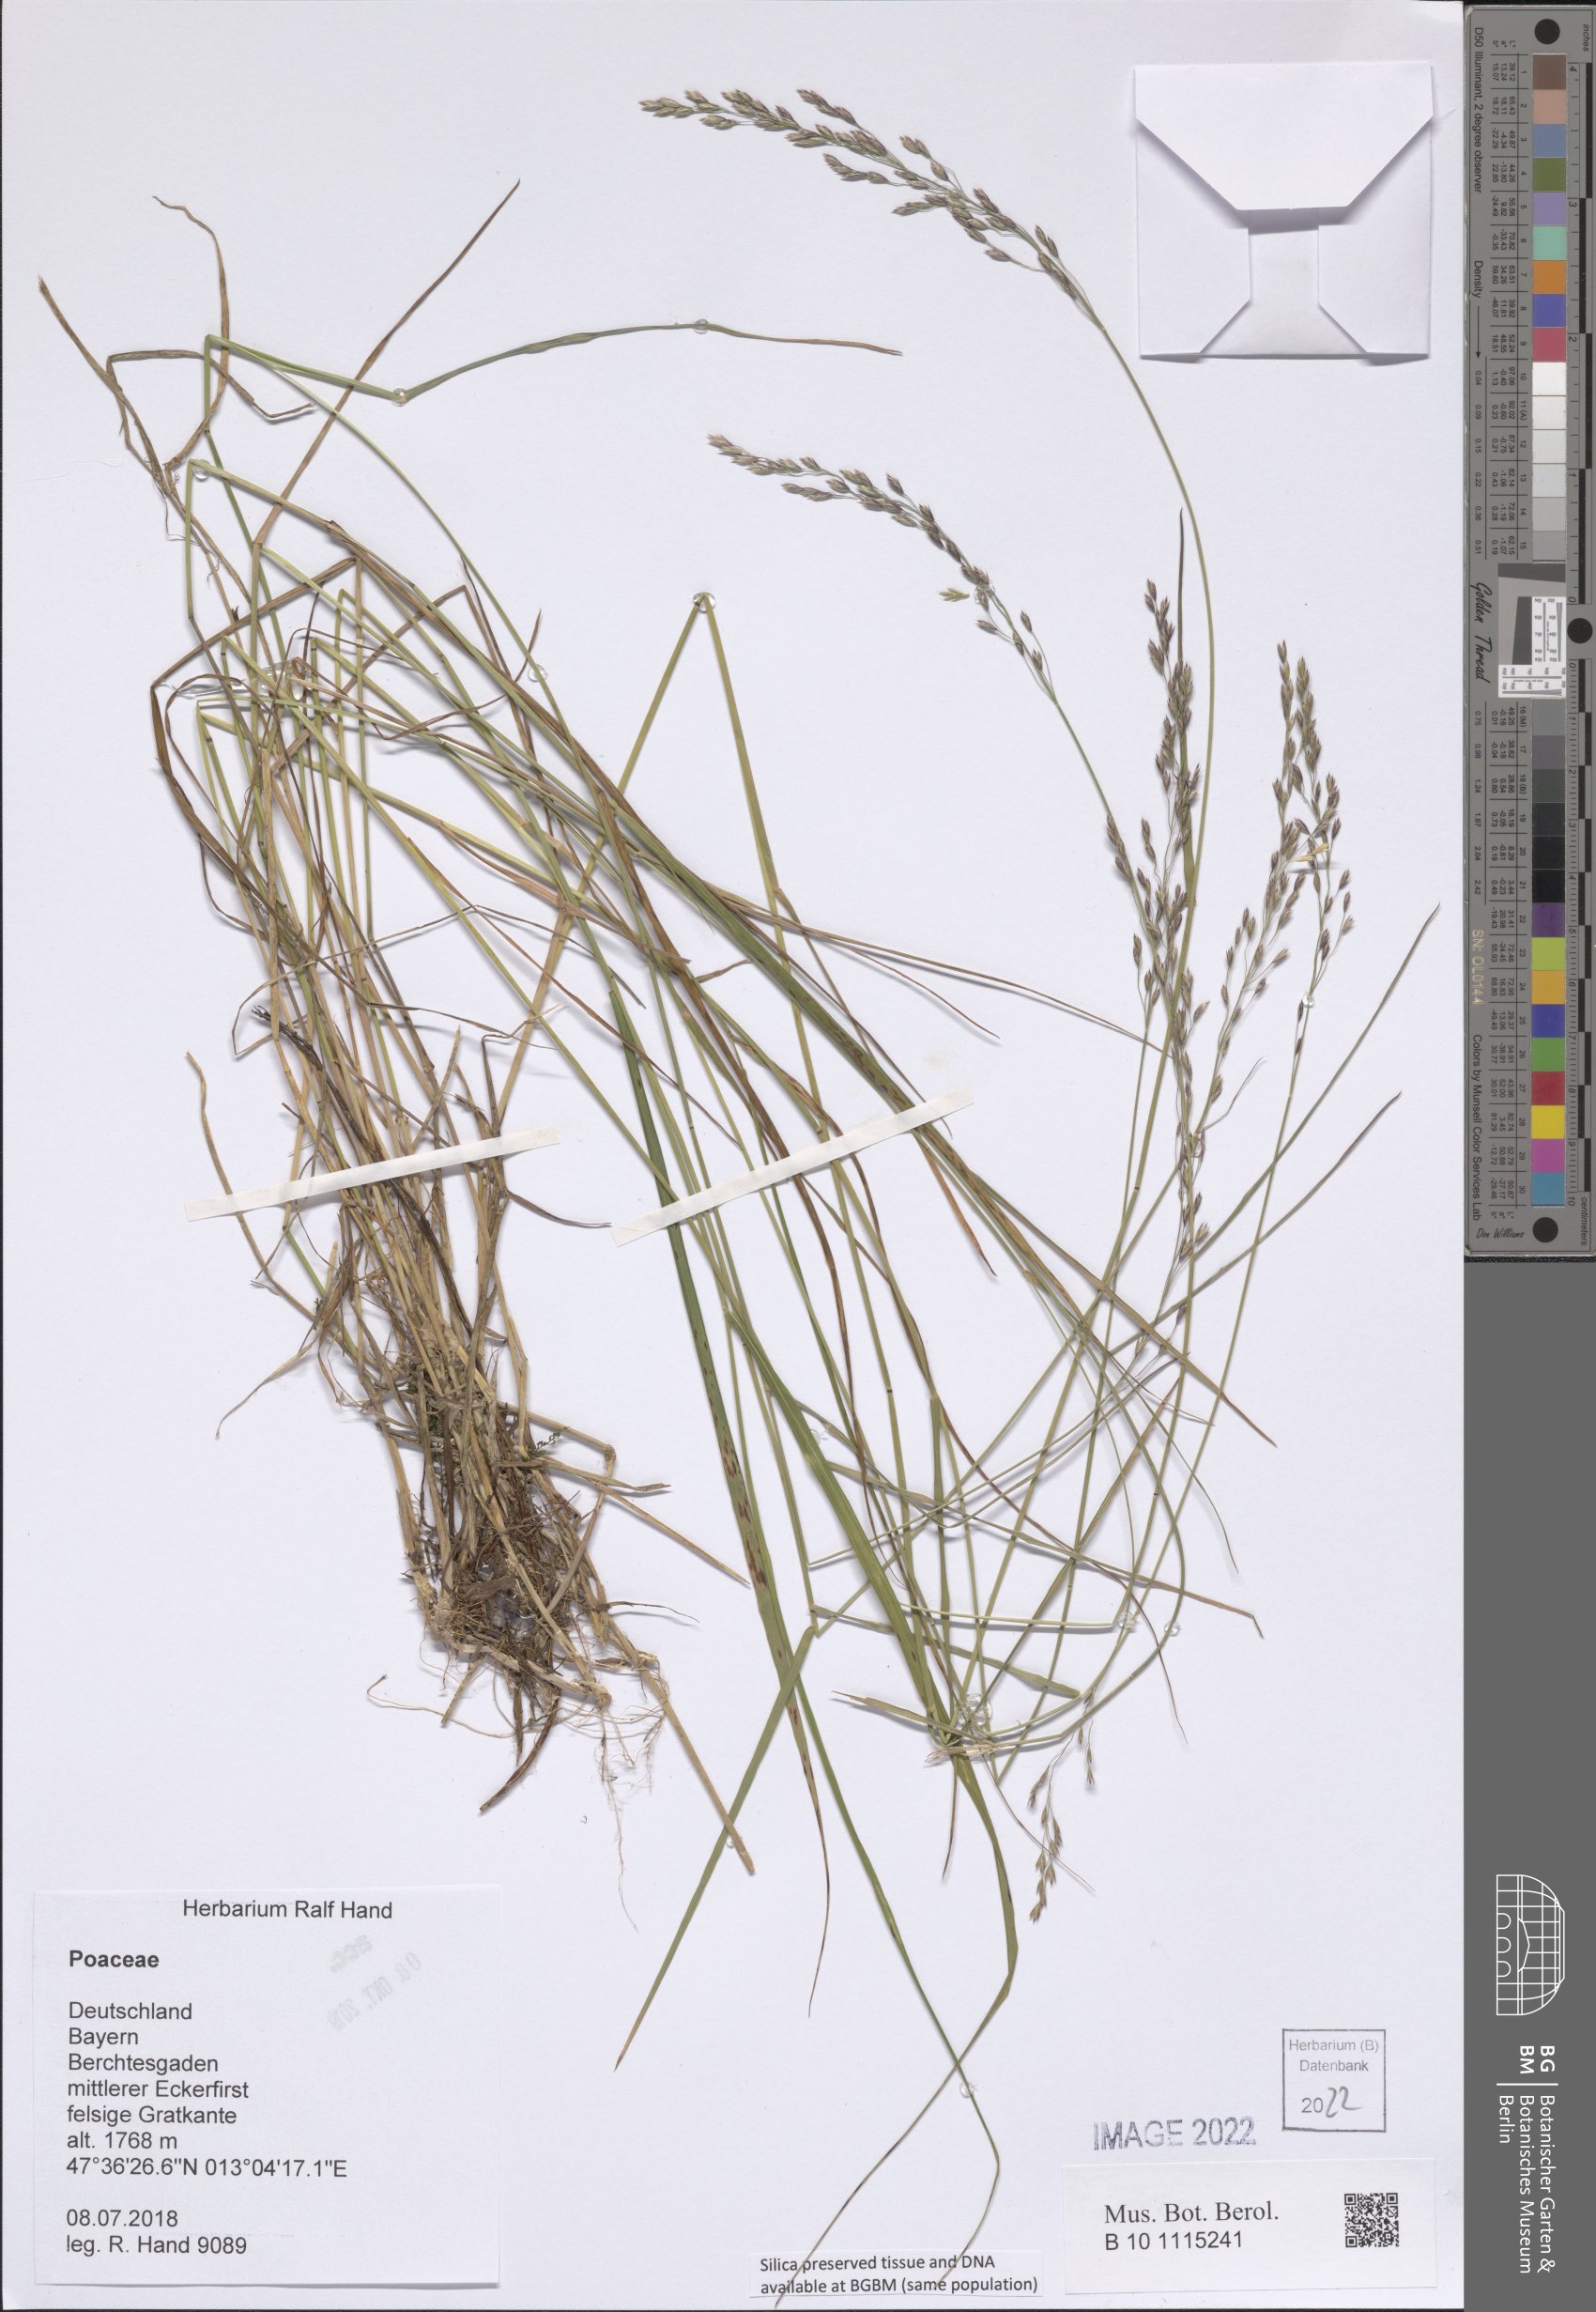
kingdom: Plantae
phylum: Tracheophyta
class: Liliopsida
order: Poales
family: Poaceae
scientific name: Poaceae
